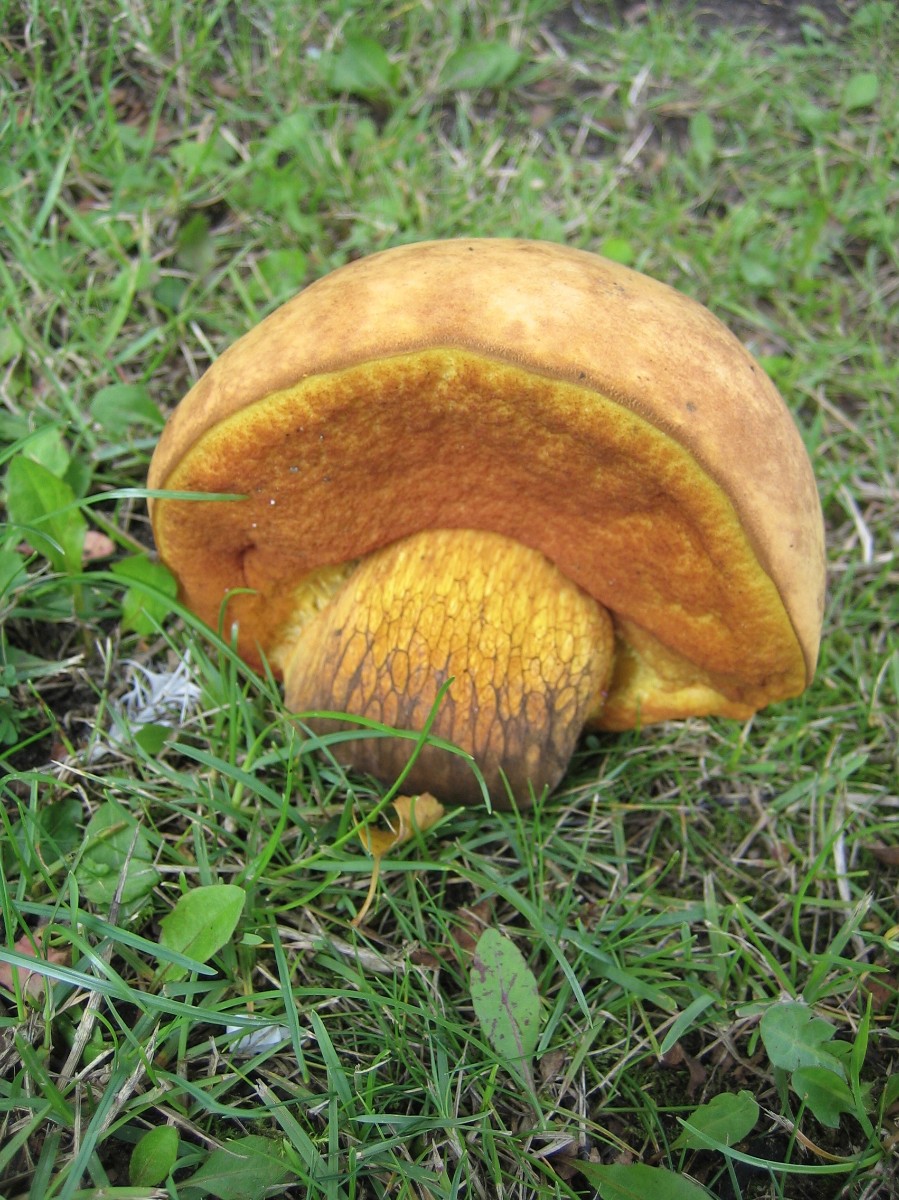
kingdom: Fungi
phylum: Basidiomycota
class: Agaricomycetes
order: Boletales
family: Boletaceae
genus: Suillellus
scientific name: Suillellus luridus
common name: netstokket indigorørhat
